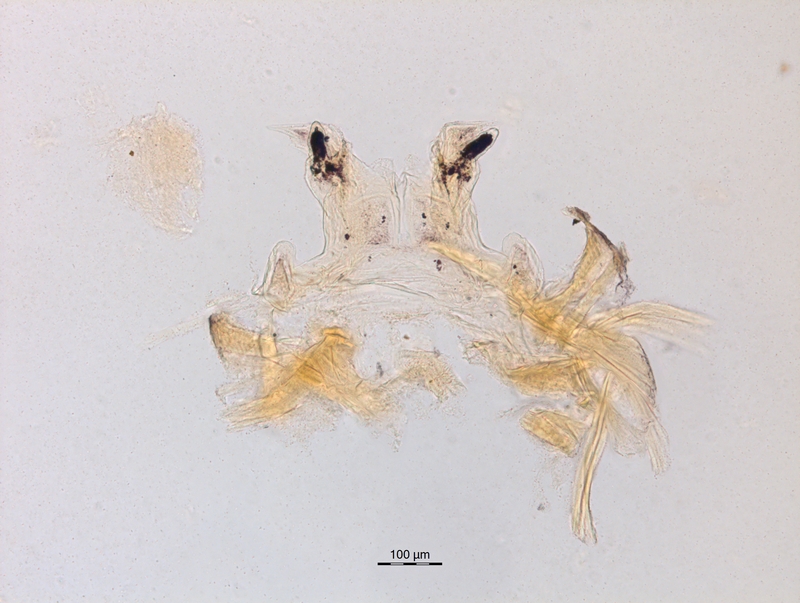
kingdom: Animalia
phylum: Arthropoda
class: Diplopoda
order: Chordeumatida
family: Craspedosomatidae
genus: Bomogona
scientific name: Bomogona lombardica
